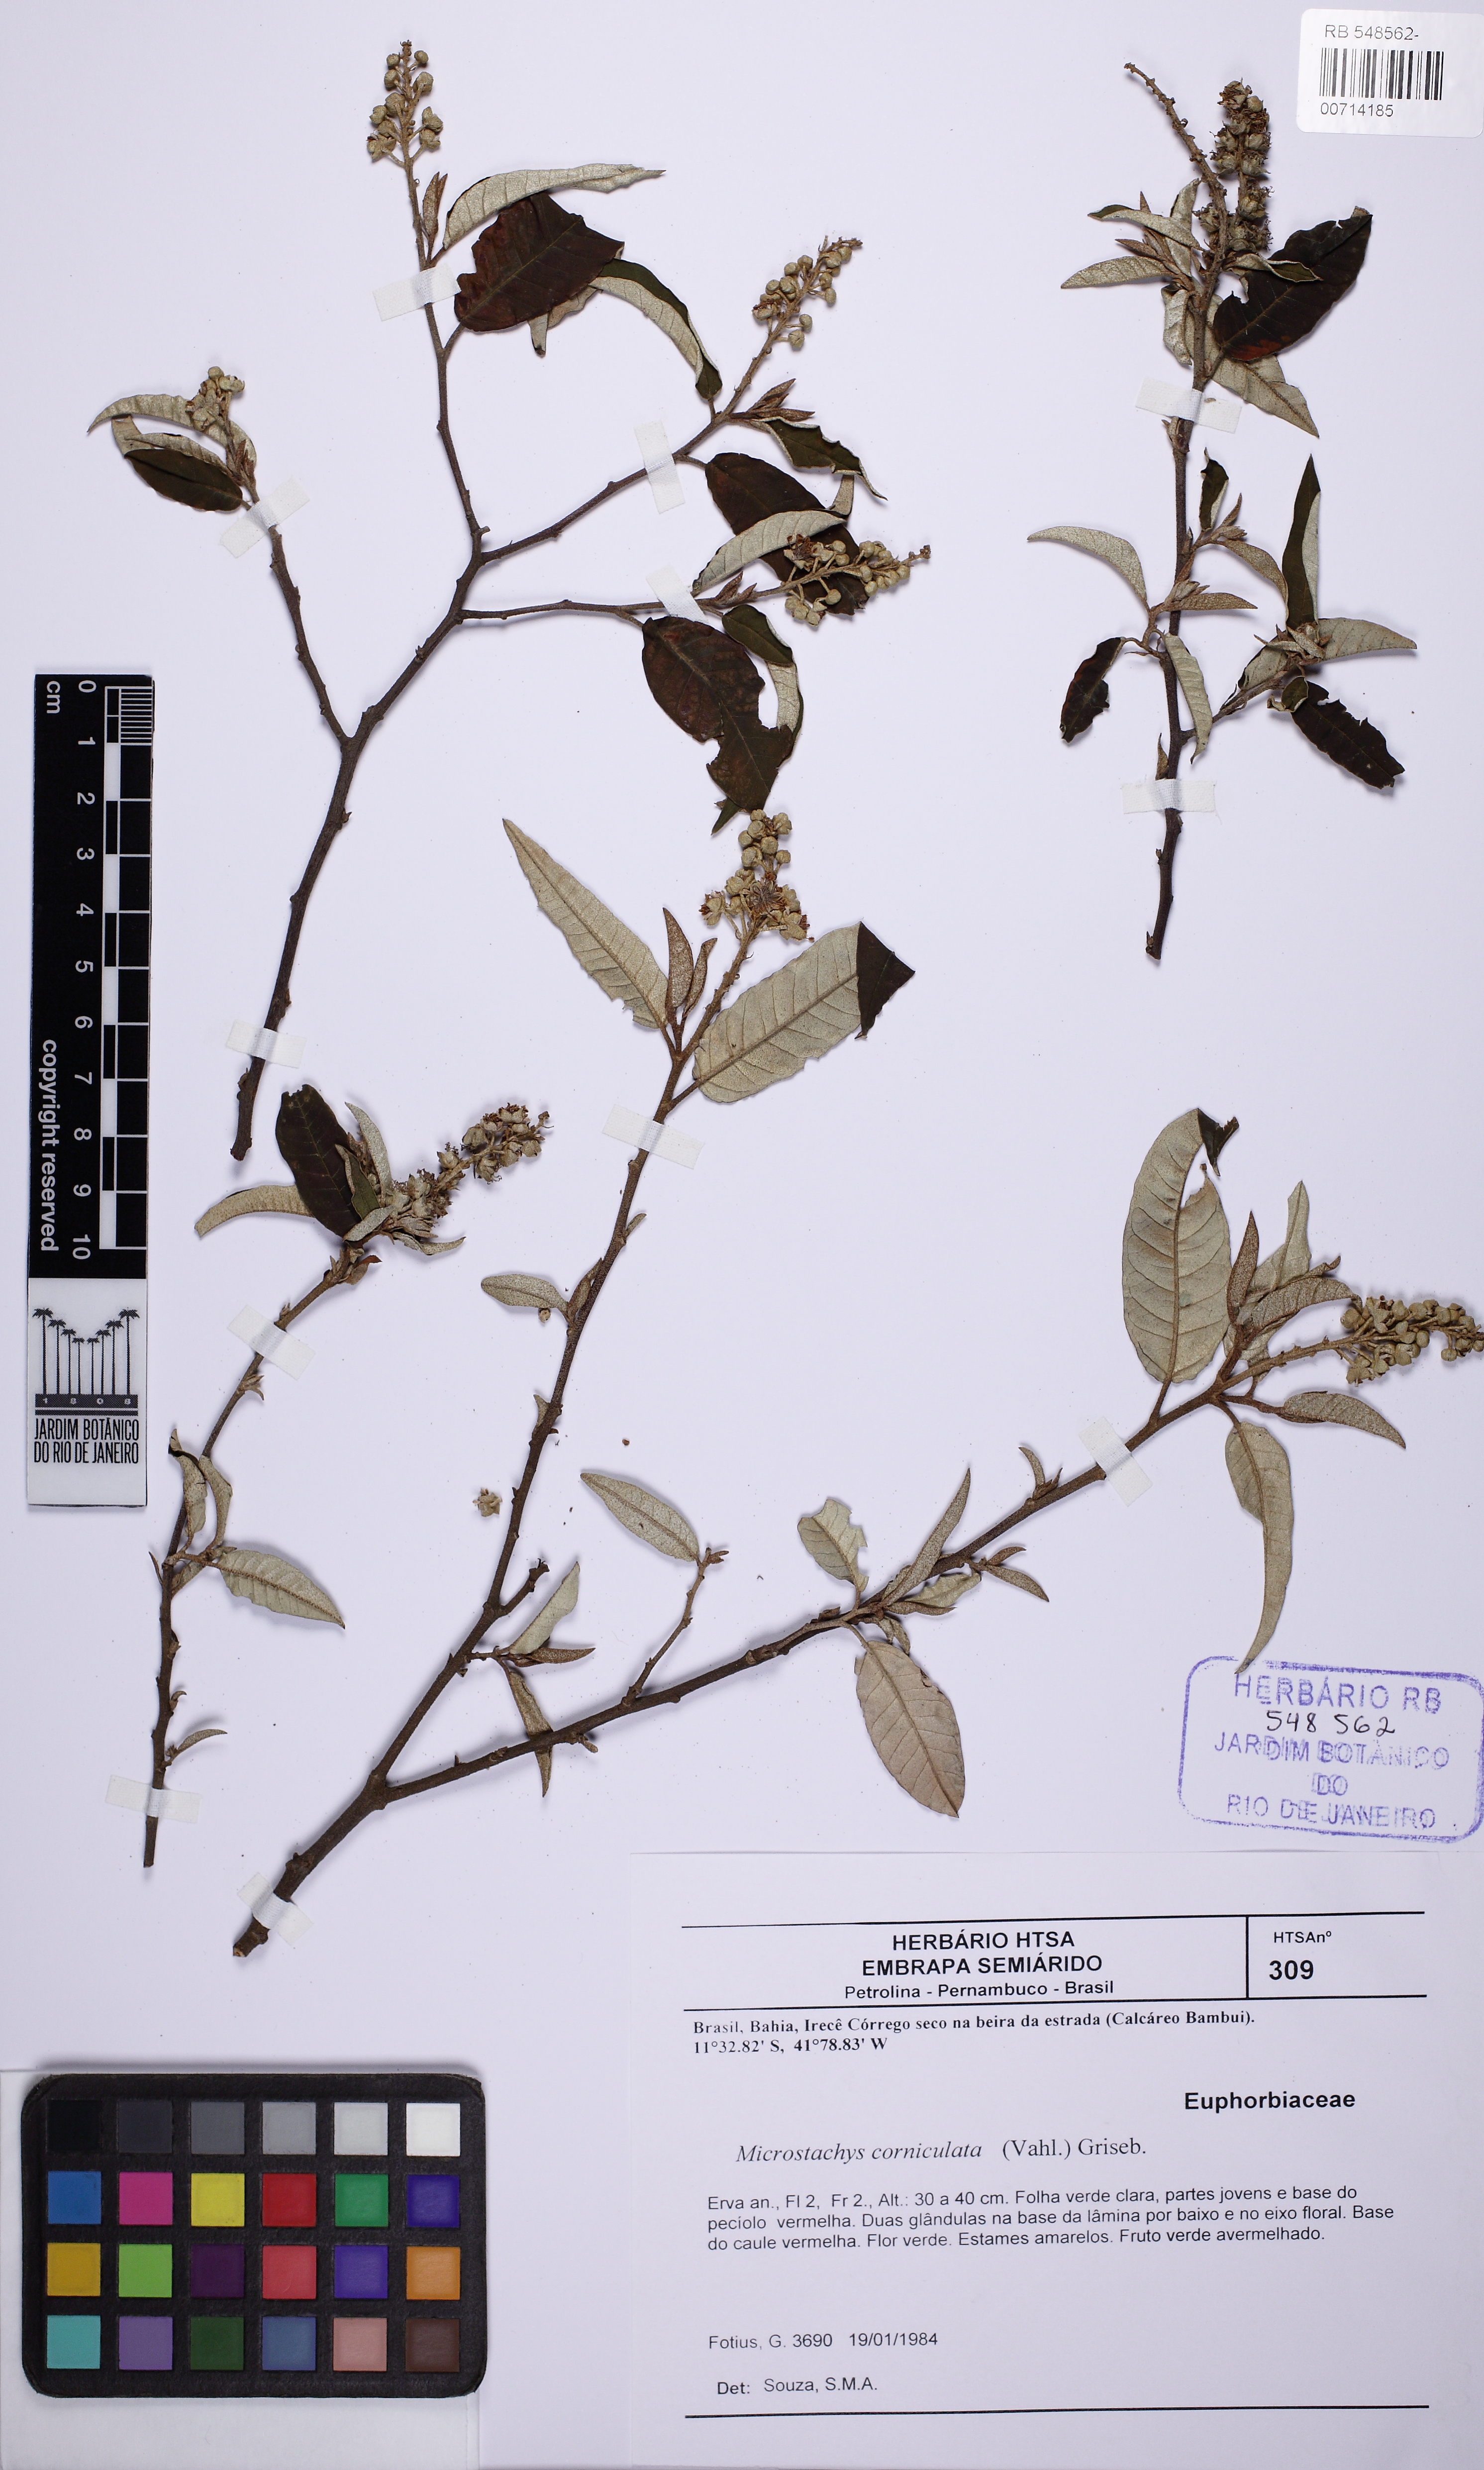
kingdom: Plantae
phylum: Tracheophyta
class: Magnoliopsida
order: Malpighiales
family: Euphorbiaceae
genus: Croton
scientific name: Croton
